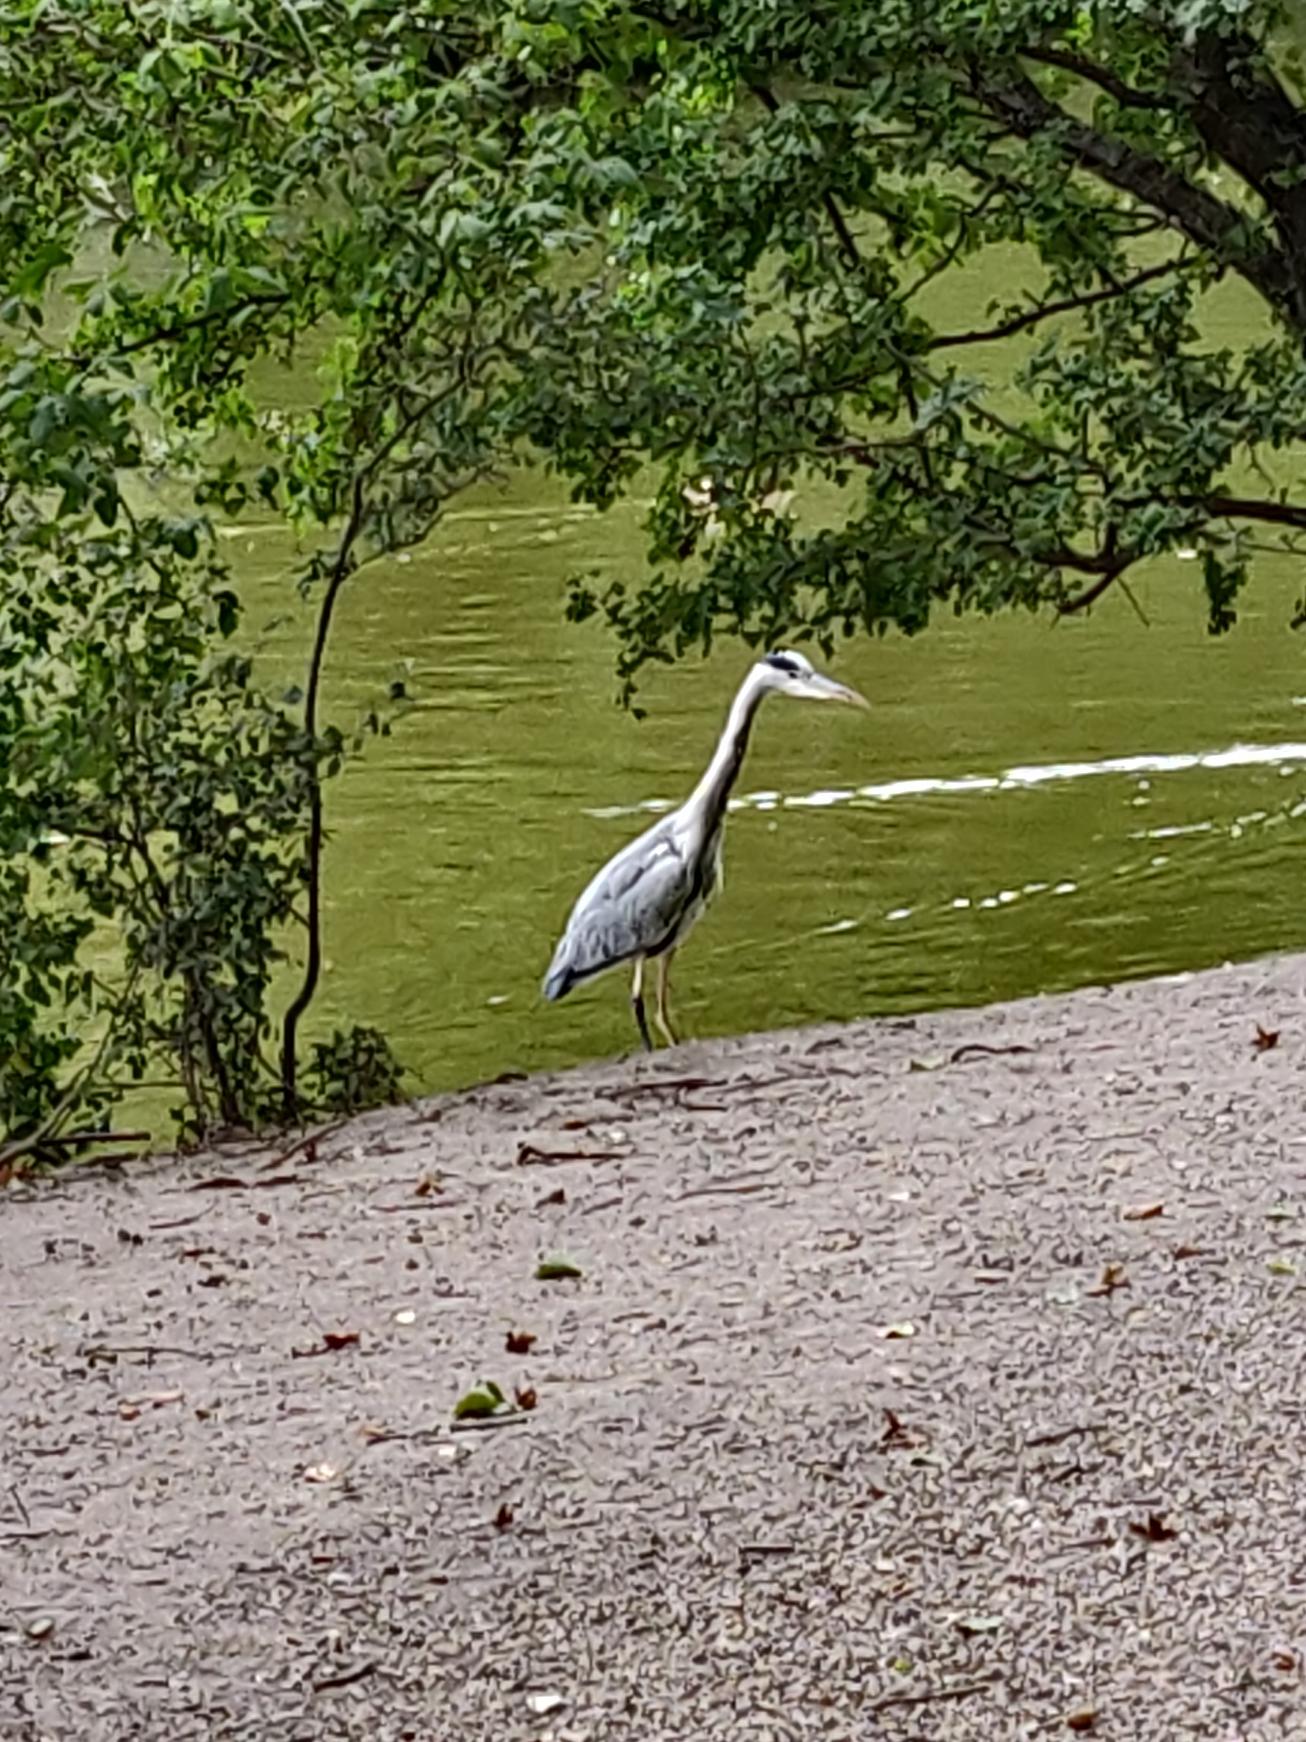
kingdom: Animalia
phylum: Chordata
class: Aves
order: Pelecaniformes
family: Ardeidae
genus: Ardea
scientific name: Ardea cinerea
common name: Fiskehejre
